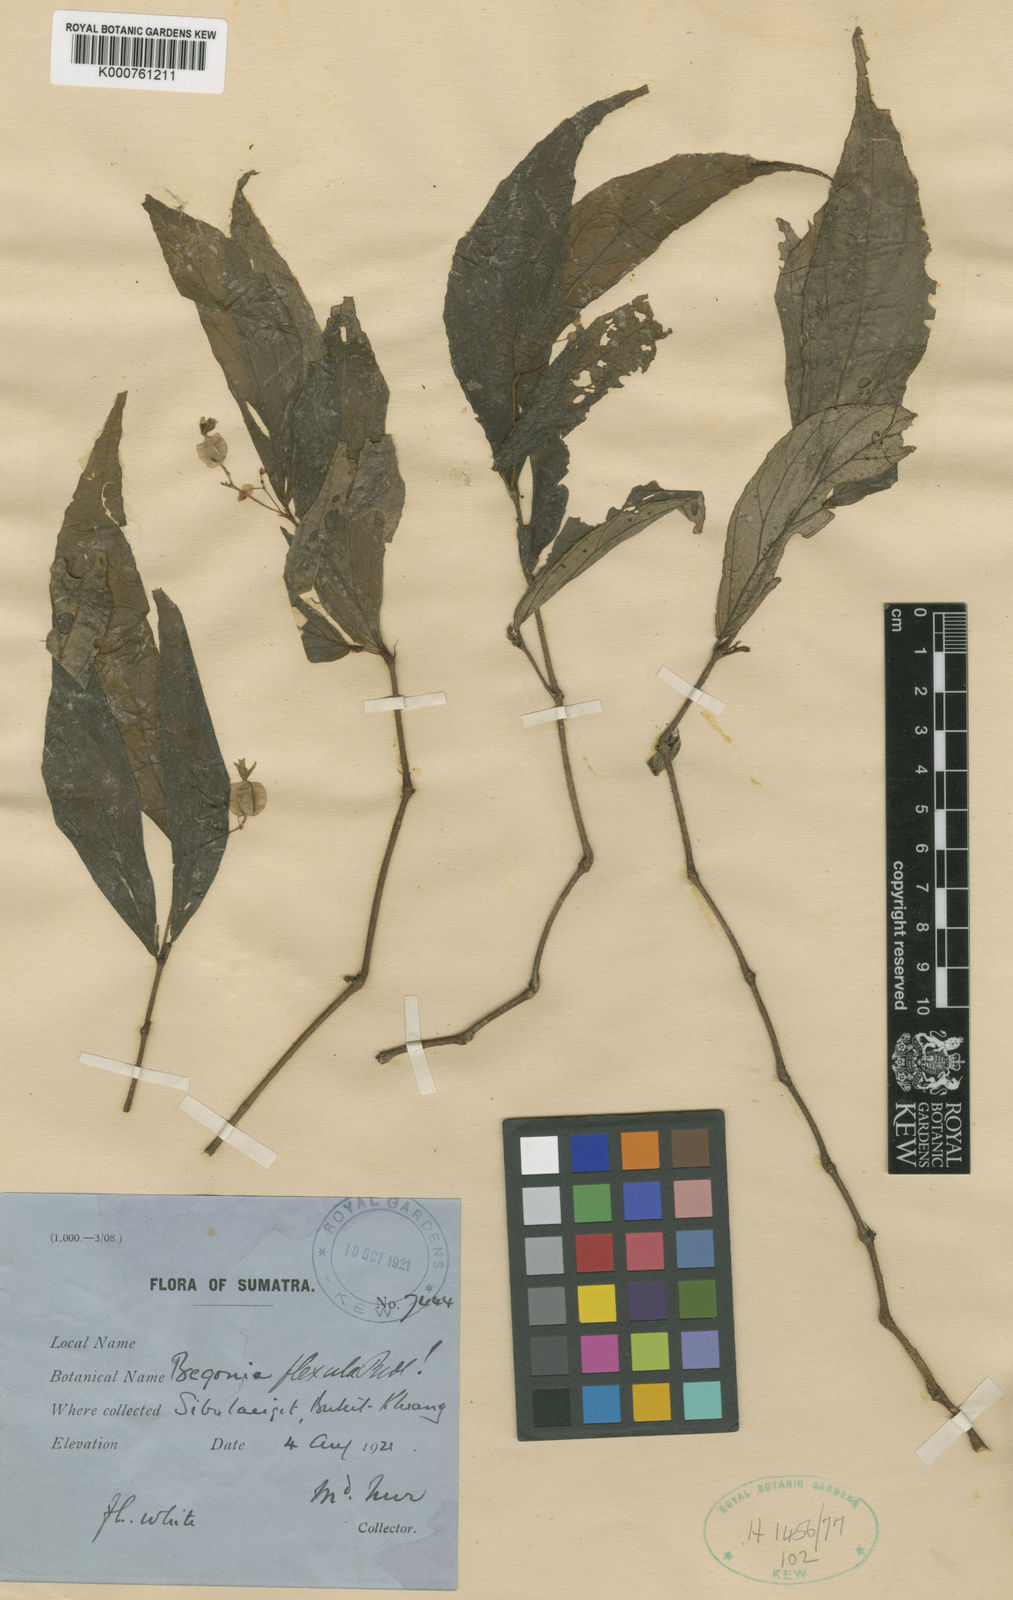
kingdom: Plantae
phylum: Tracheophyta
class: Magnoliopsida
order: Cucurbitales
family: Begoniaceae
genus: Begonia
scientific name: Begonia flexula
